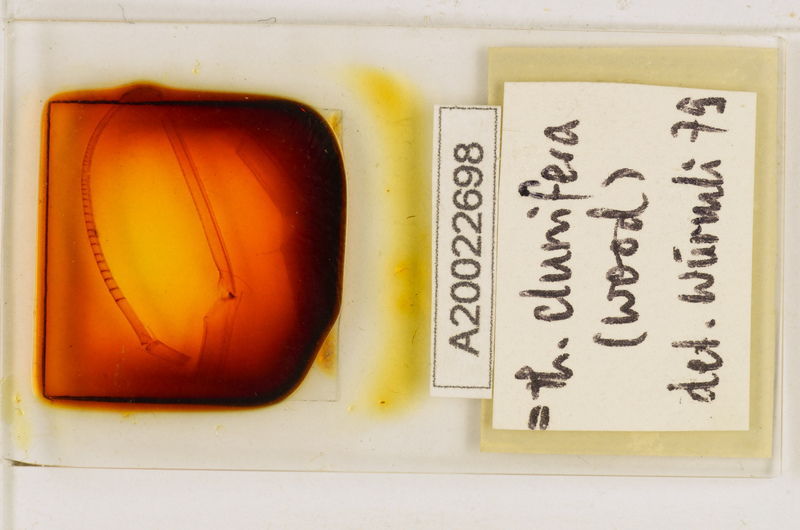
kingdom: Animalia
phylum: Arthropoda
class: Chilopoda
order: Scutigeromorpha
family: Scutigeridae
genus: Thereuopoda
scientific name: Thereuopoda clunifera
